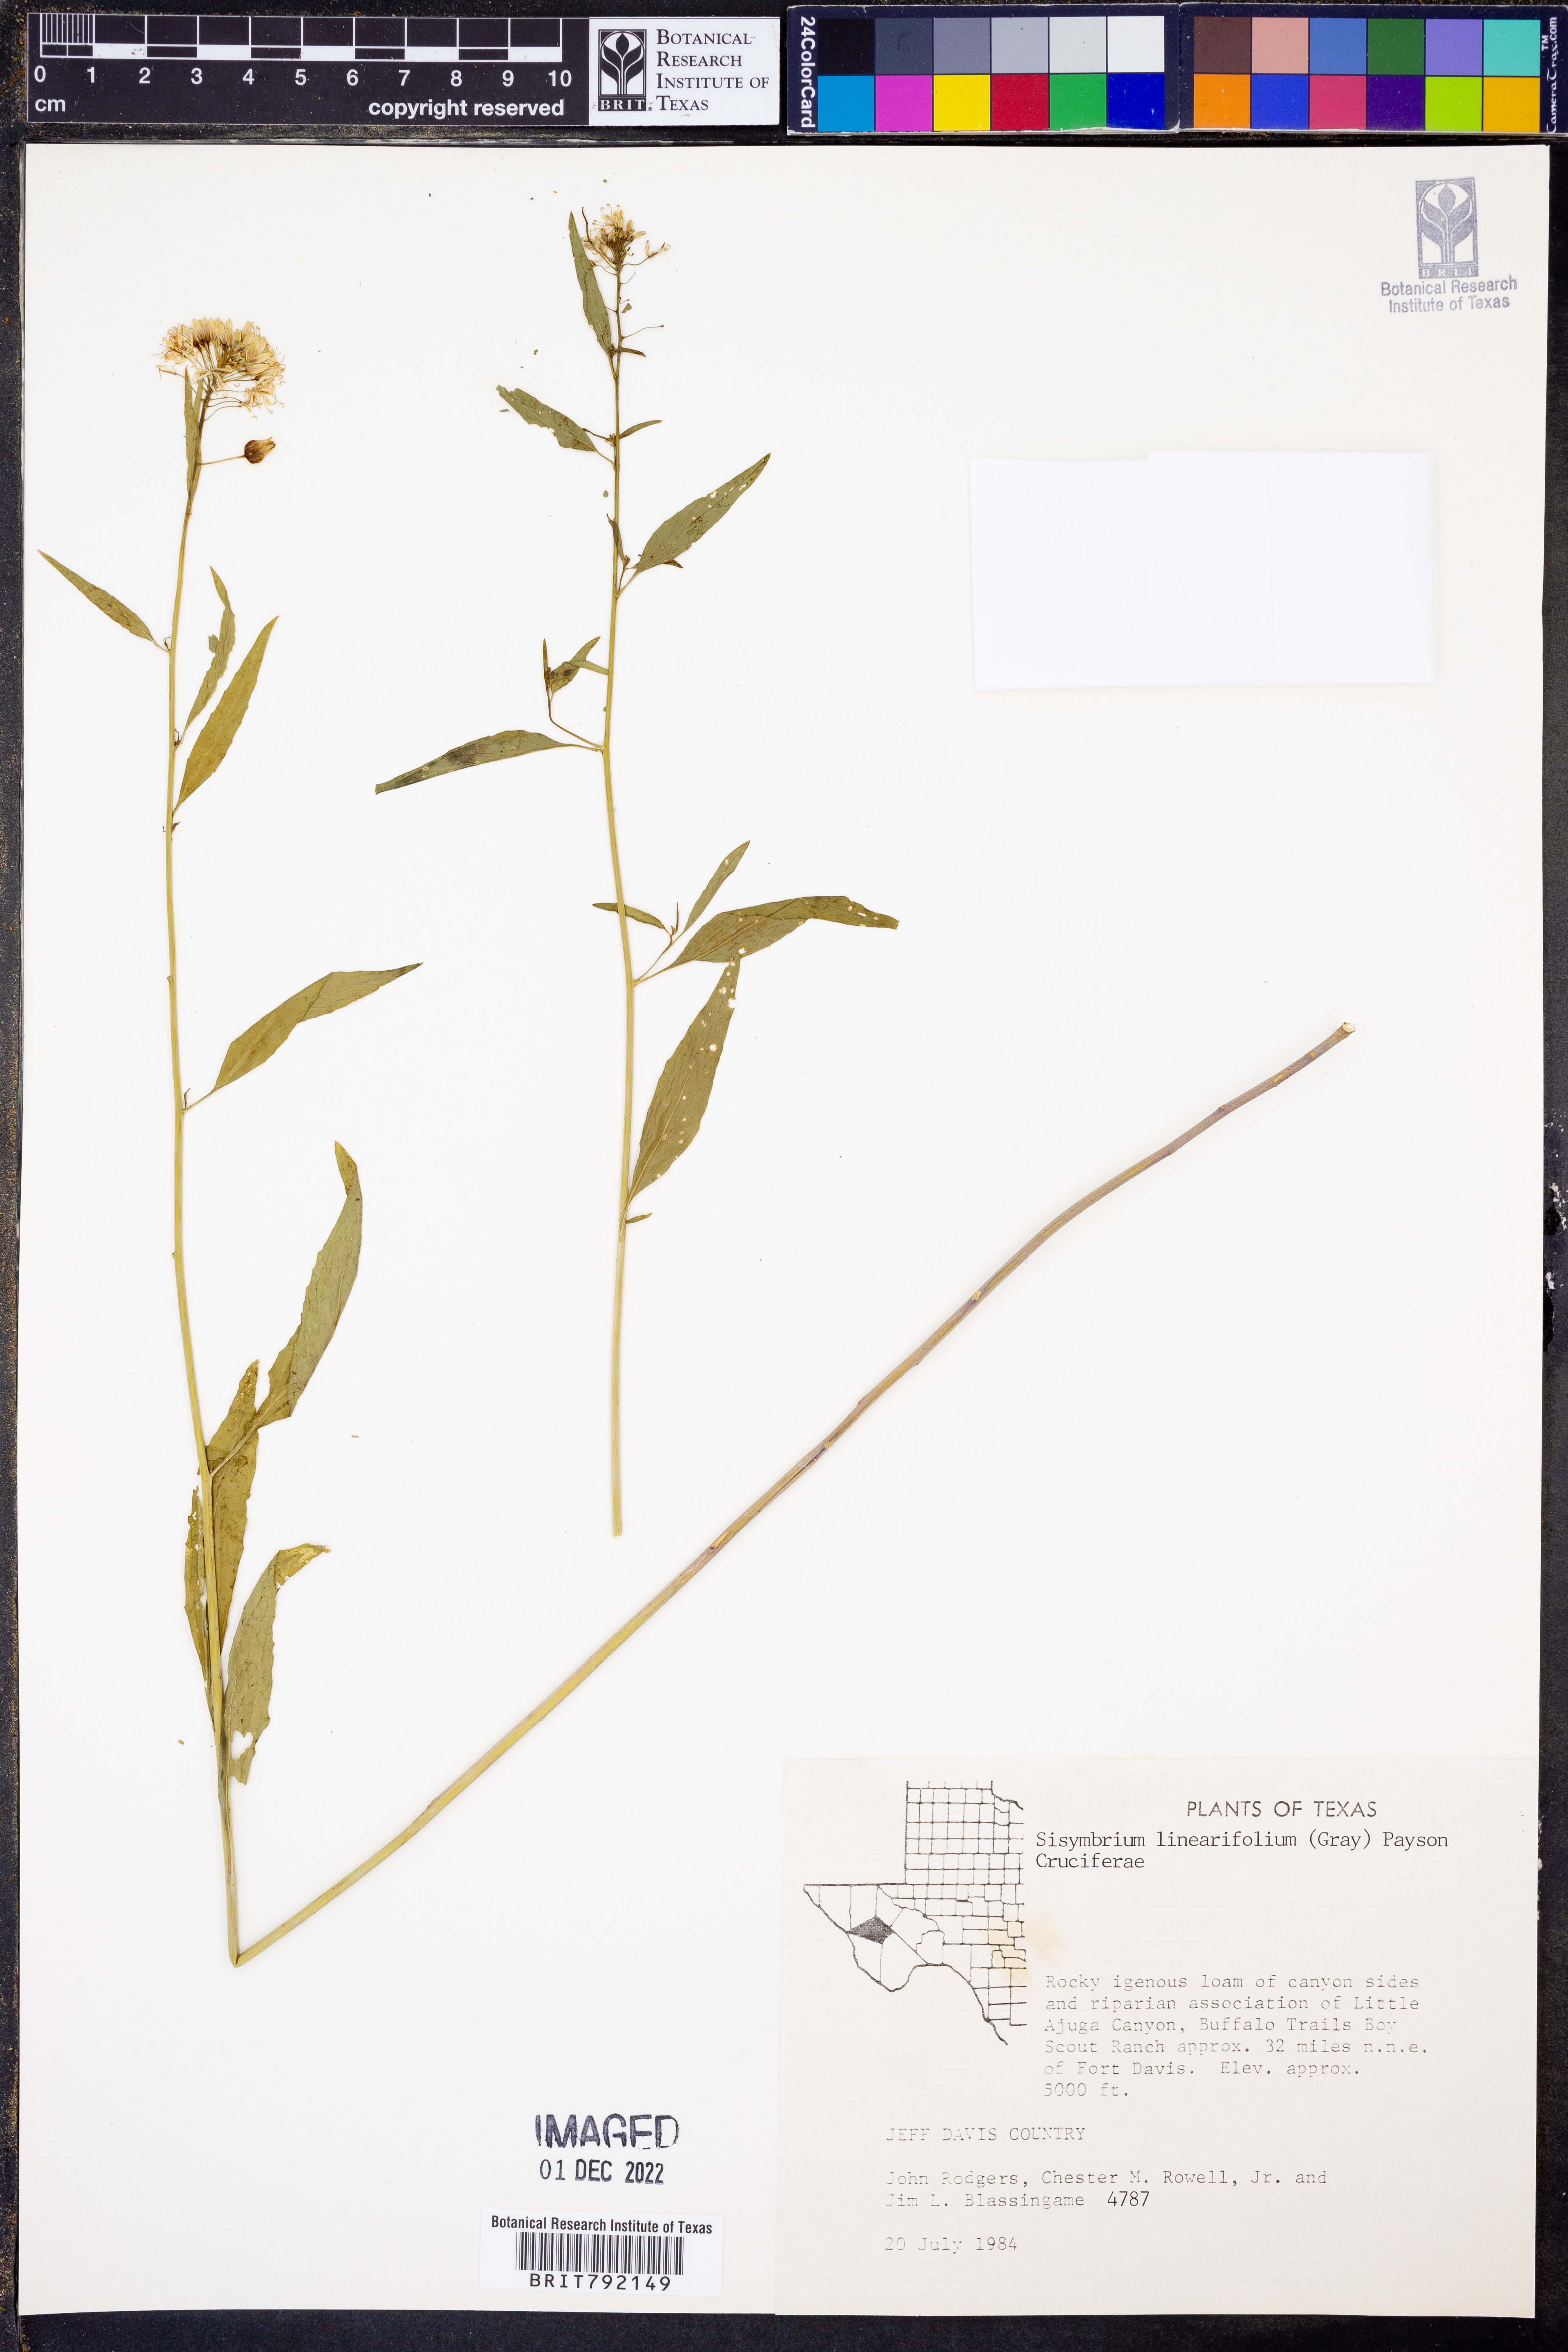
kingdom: Plantae
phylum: Tracheophyta
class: Magnoliopsida
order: Brassicales
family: Brassicaceae
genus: Hesperidanthus
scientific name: Hesperidanthus linearifolius
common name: Slim-leaf plains mustard
